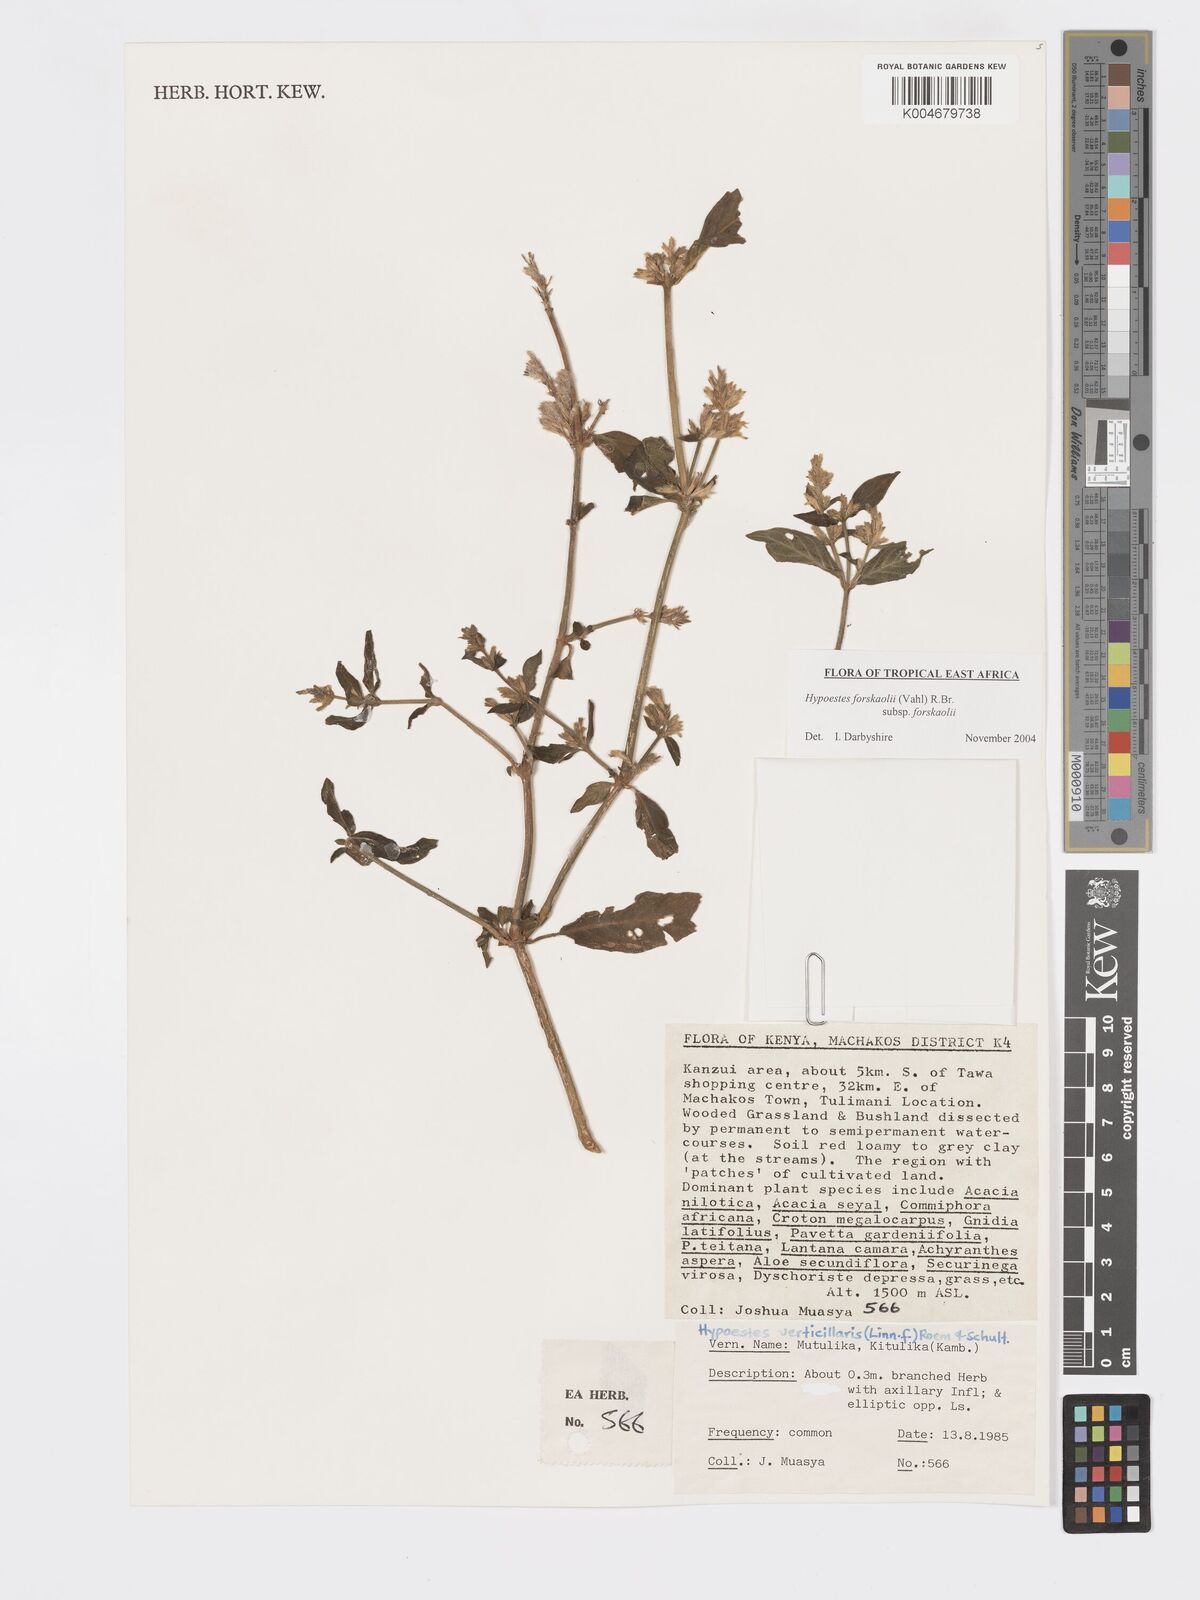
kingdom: Plantae
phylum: Tracheophyta
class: Magnoliopsida
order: Lamiales
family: Acanthaceae
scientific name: Acanthaceae
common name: Acanthaceae
